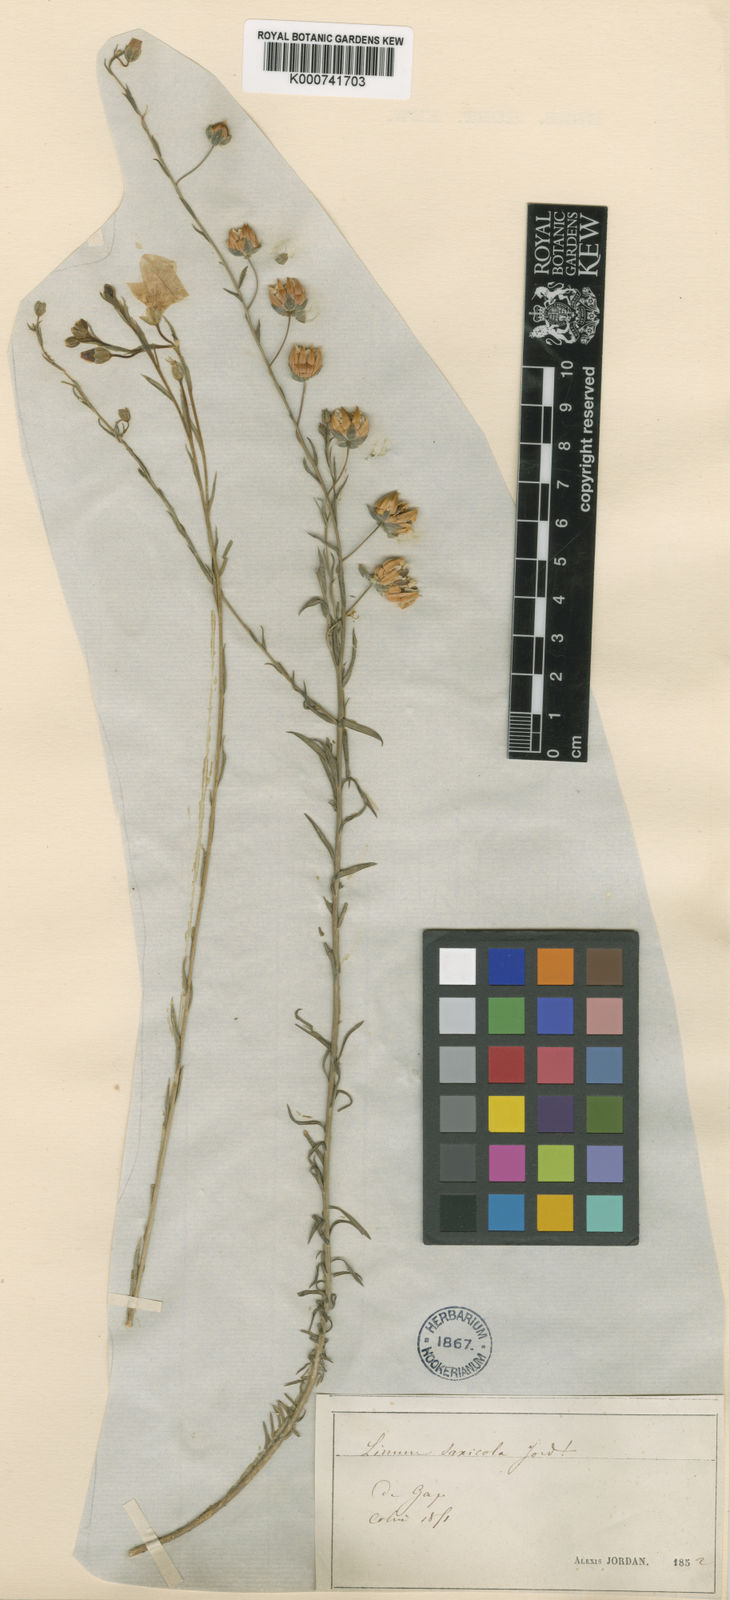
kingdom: Plantae
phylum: Tracheophyta
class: Magnoliopsida
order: Malpighiales
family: Linaceae
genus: Linum
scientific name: Linum alpinum
